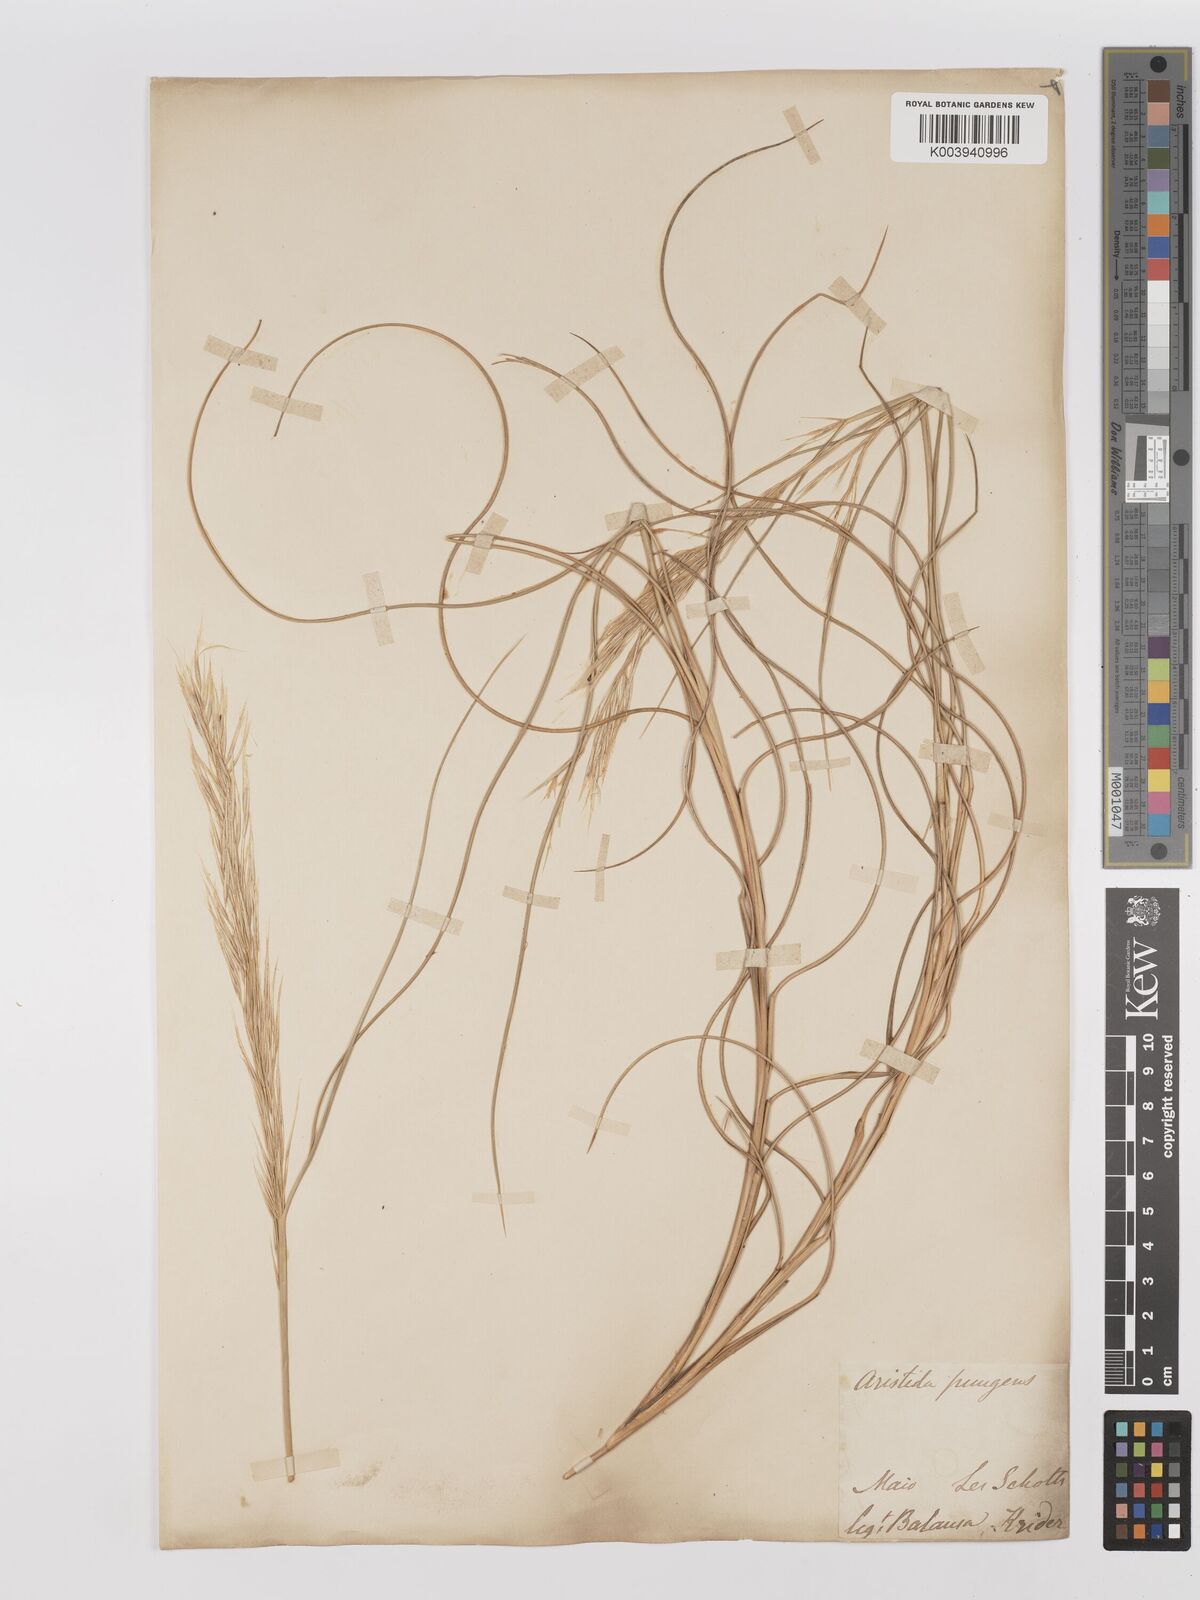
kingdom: Plantae
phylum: Tracheophyta
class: Liliopsida
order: Poales
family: Poaceae
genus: Stipagrostis
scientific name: Stipagrostis pungens
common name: Three-awn grass
